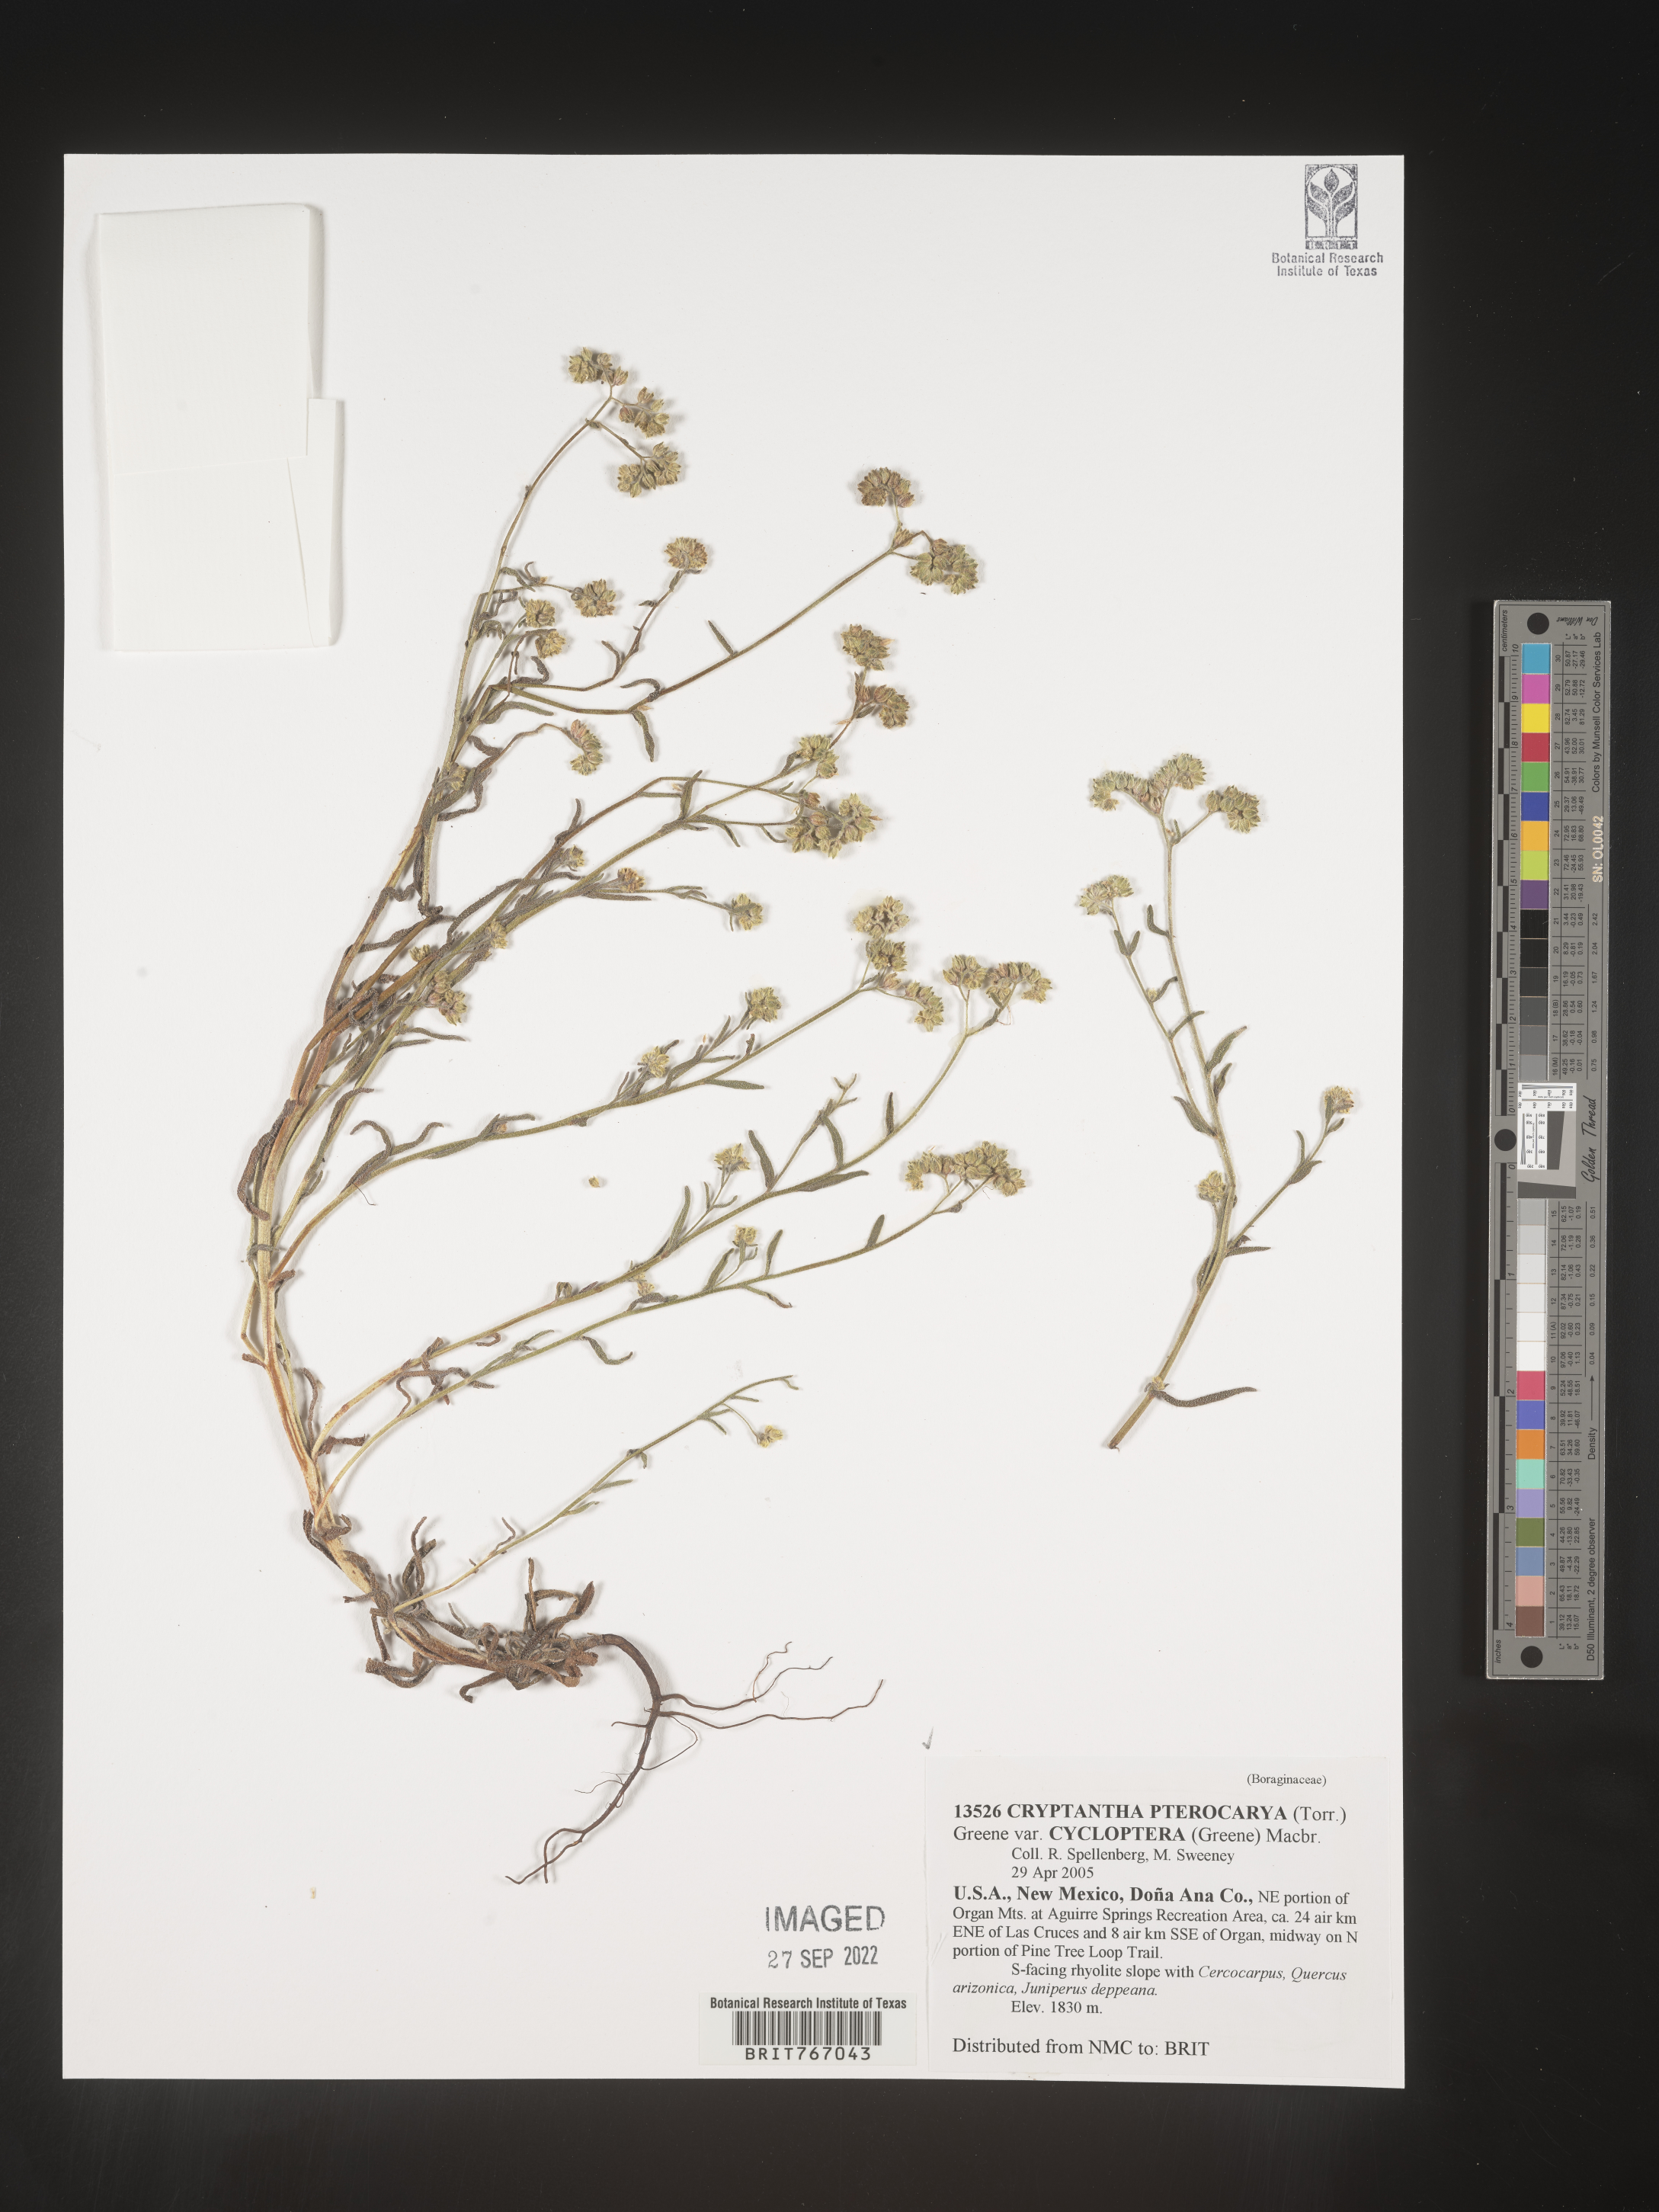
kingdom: Plantae
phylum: Tracheophyta
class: Magnoliopsida
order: Boraginales
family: Boraginaceae
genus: Cryptantha
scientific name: Cryptantha pterocarya
